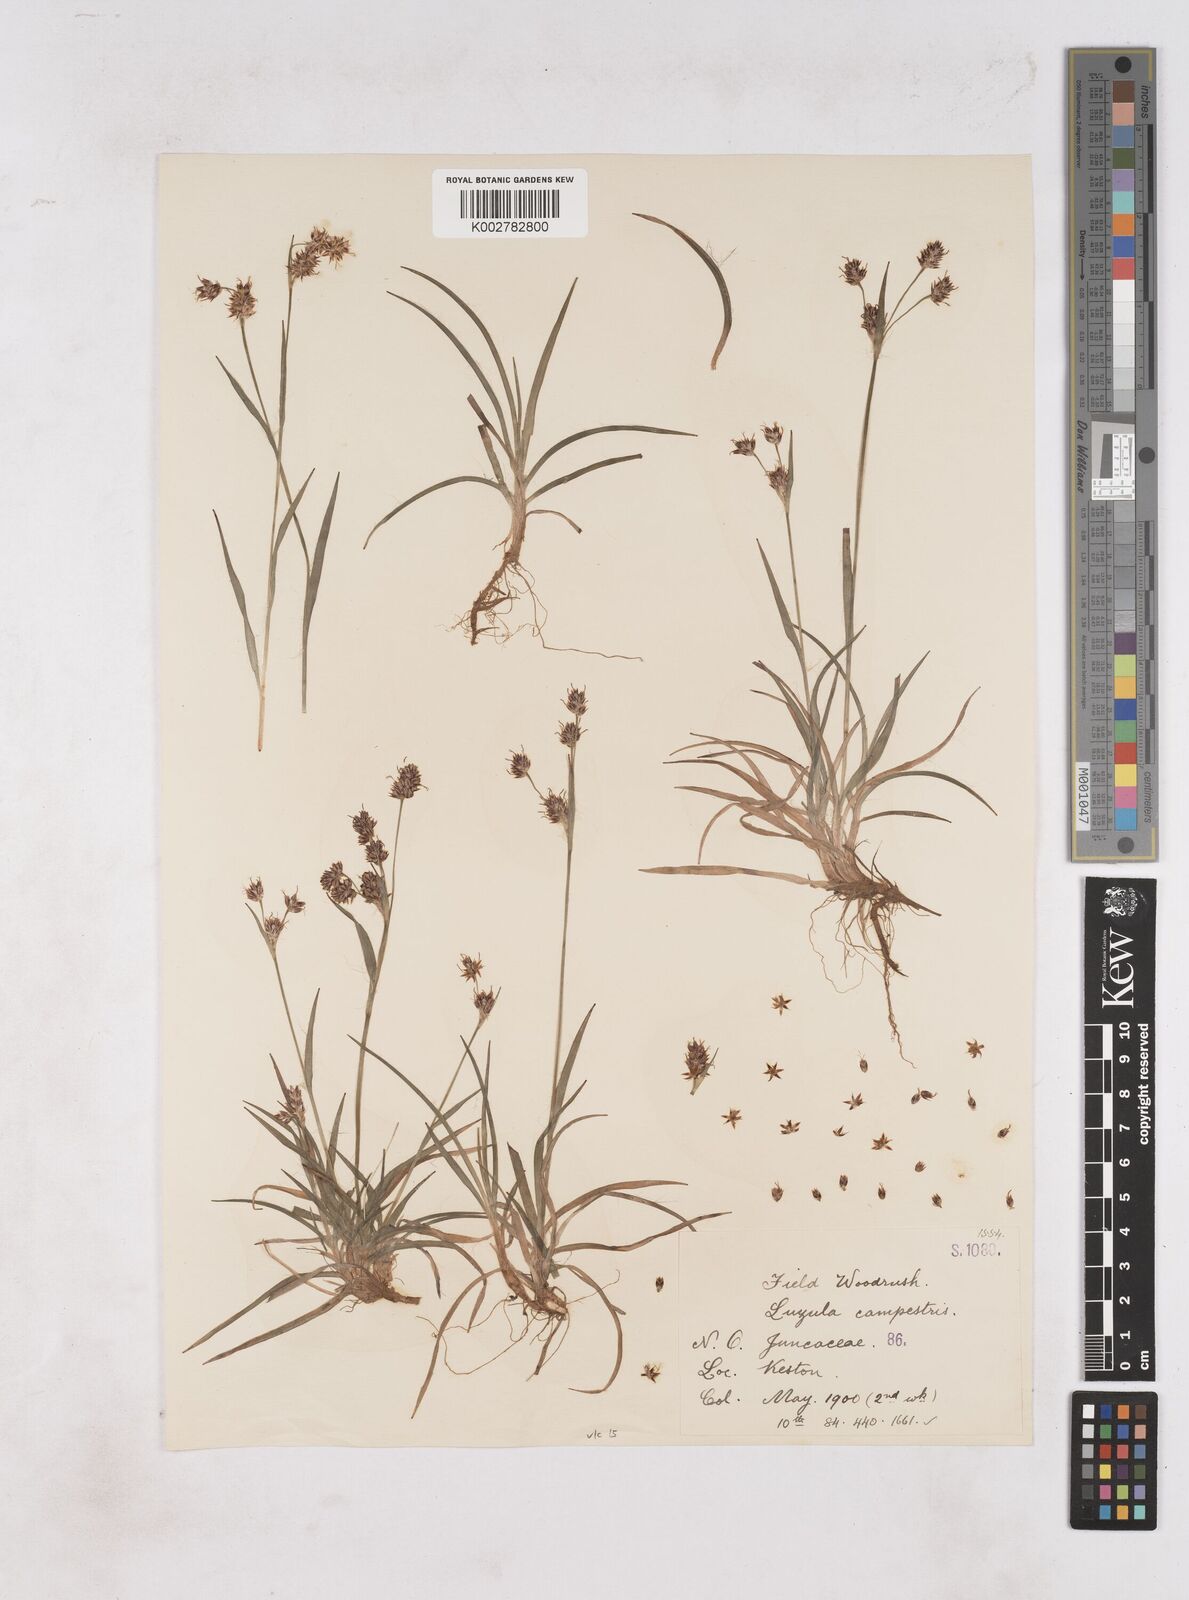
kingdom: Plantae
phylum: Tracheophyta
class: Liliopsida
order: Poales
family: Juncaceae
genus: Luzula
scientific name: Luzula campestris
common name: Field wood-rush
